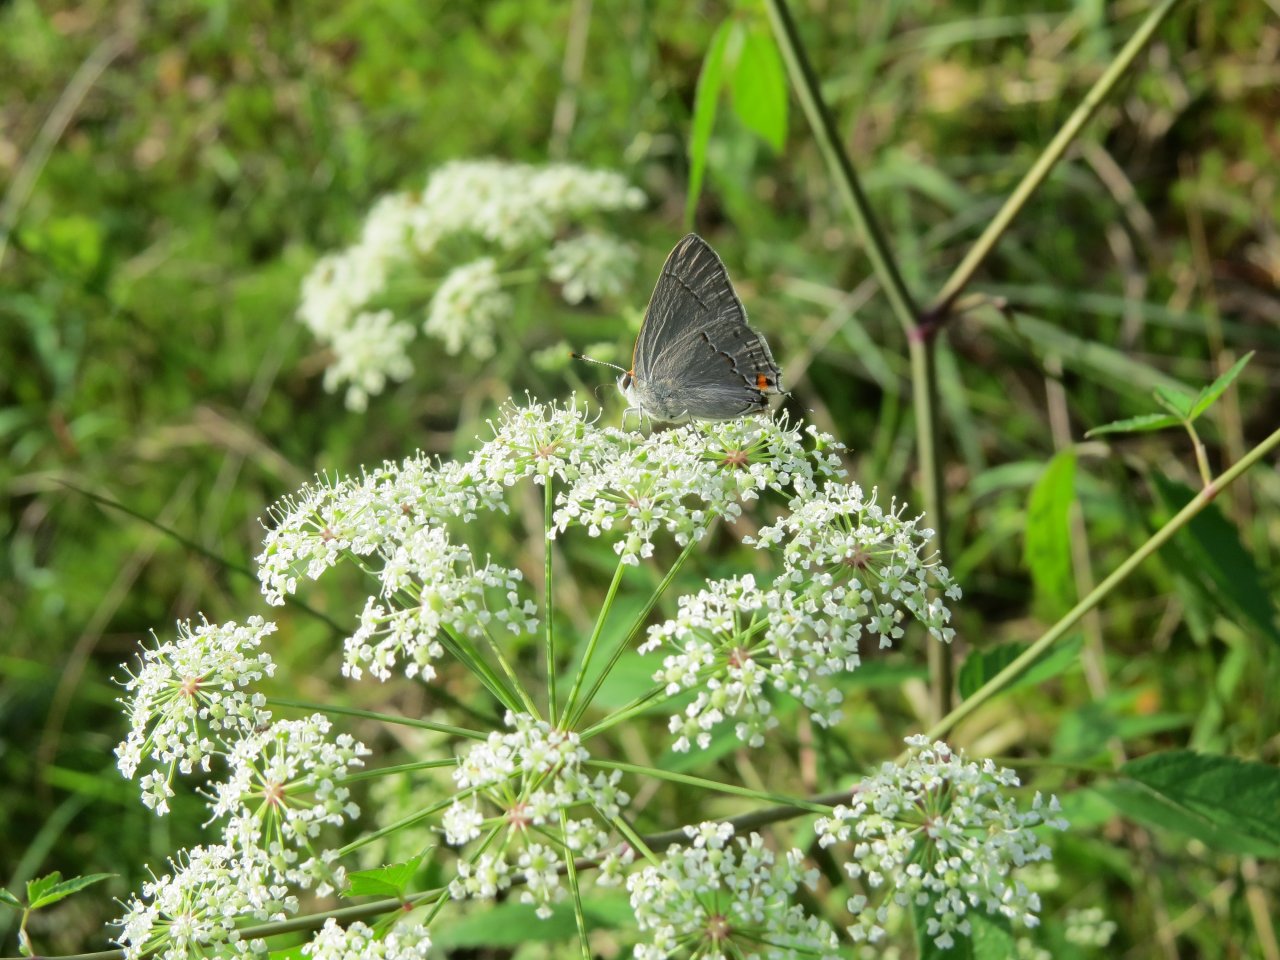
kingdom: Animalia
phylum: Arthropoda
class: Insecta
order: Lepidoptera
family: Lycaenidae
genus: Strymon
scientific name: Strymon melinus
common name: Gray Hairstreak
